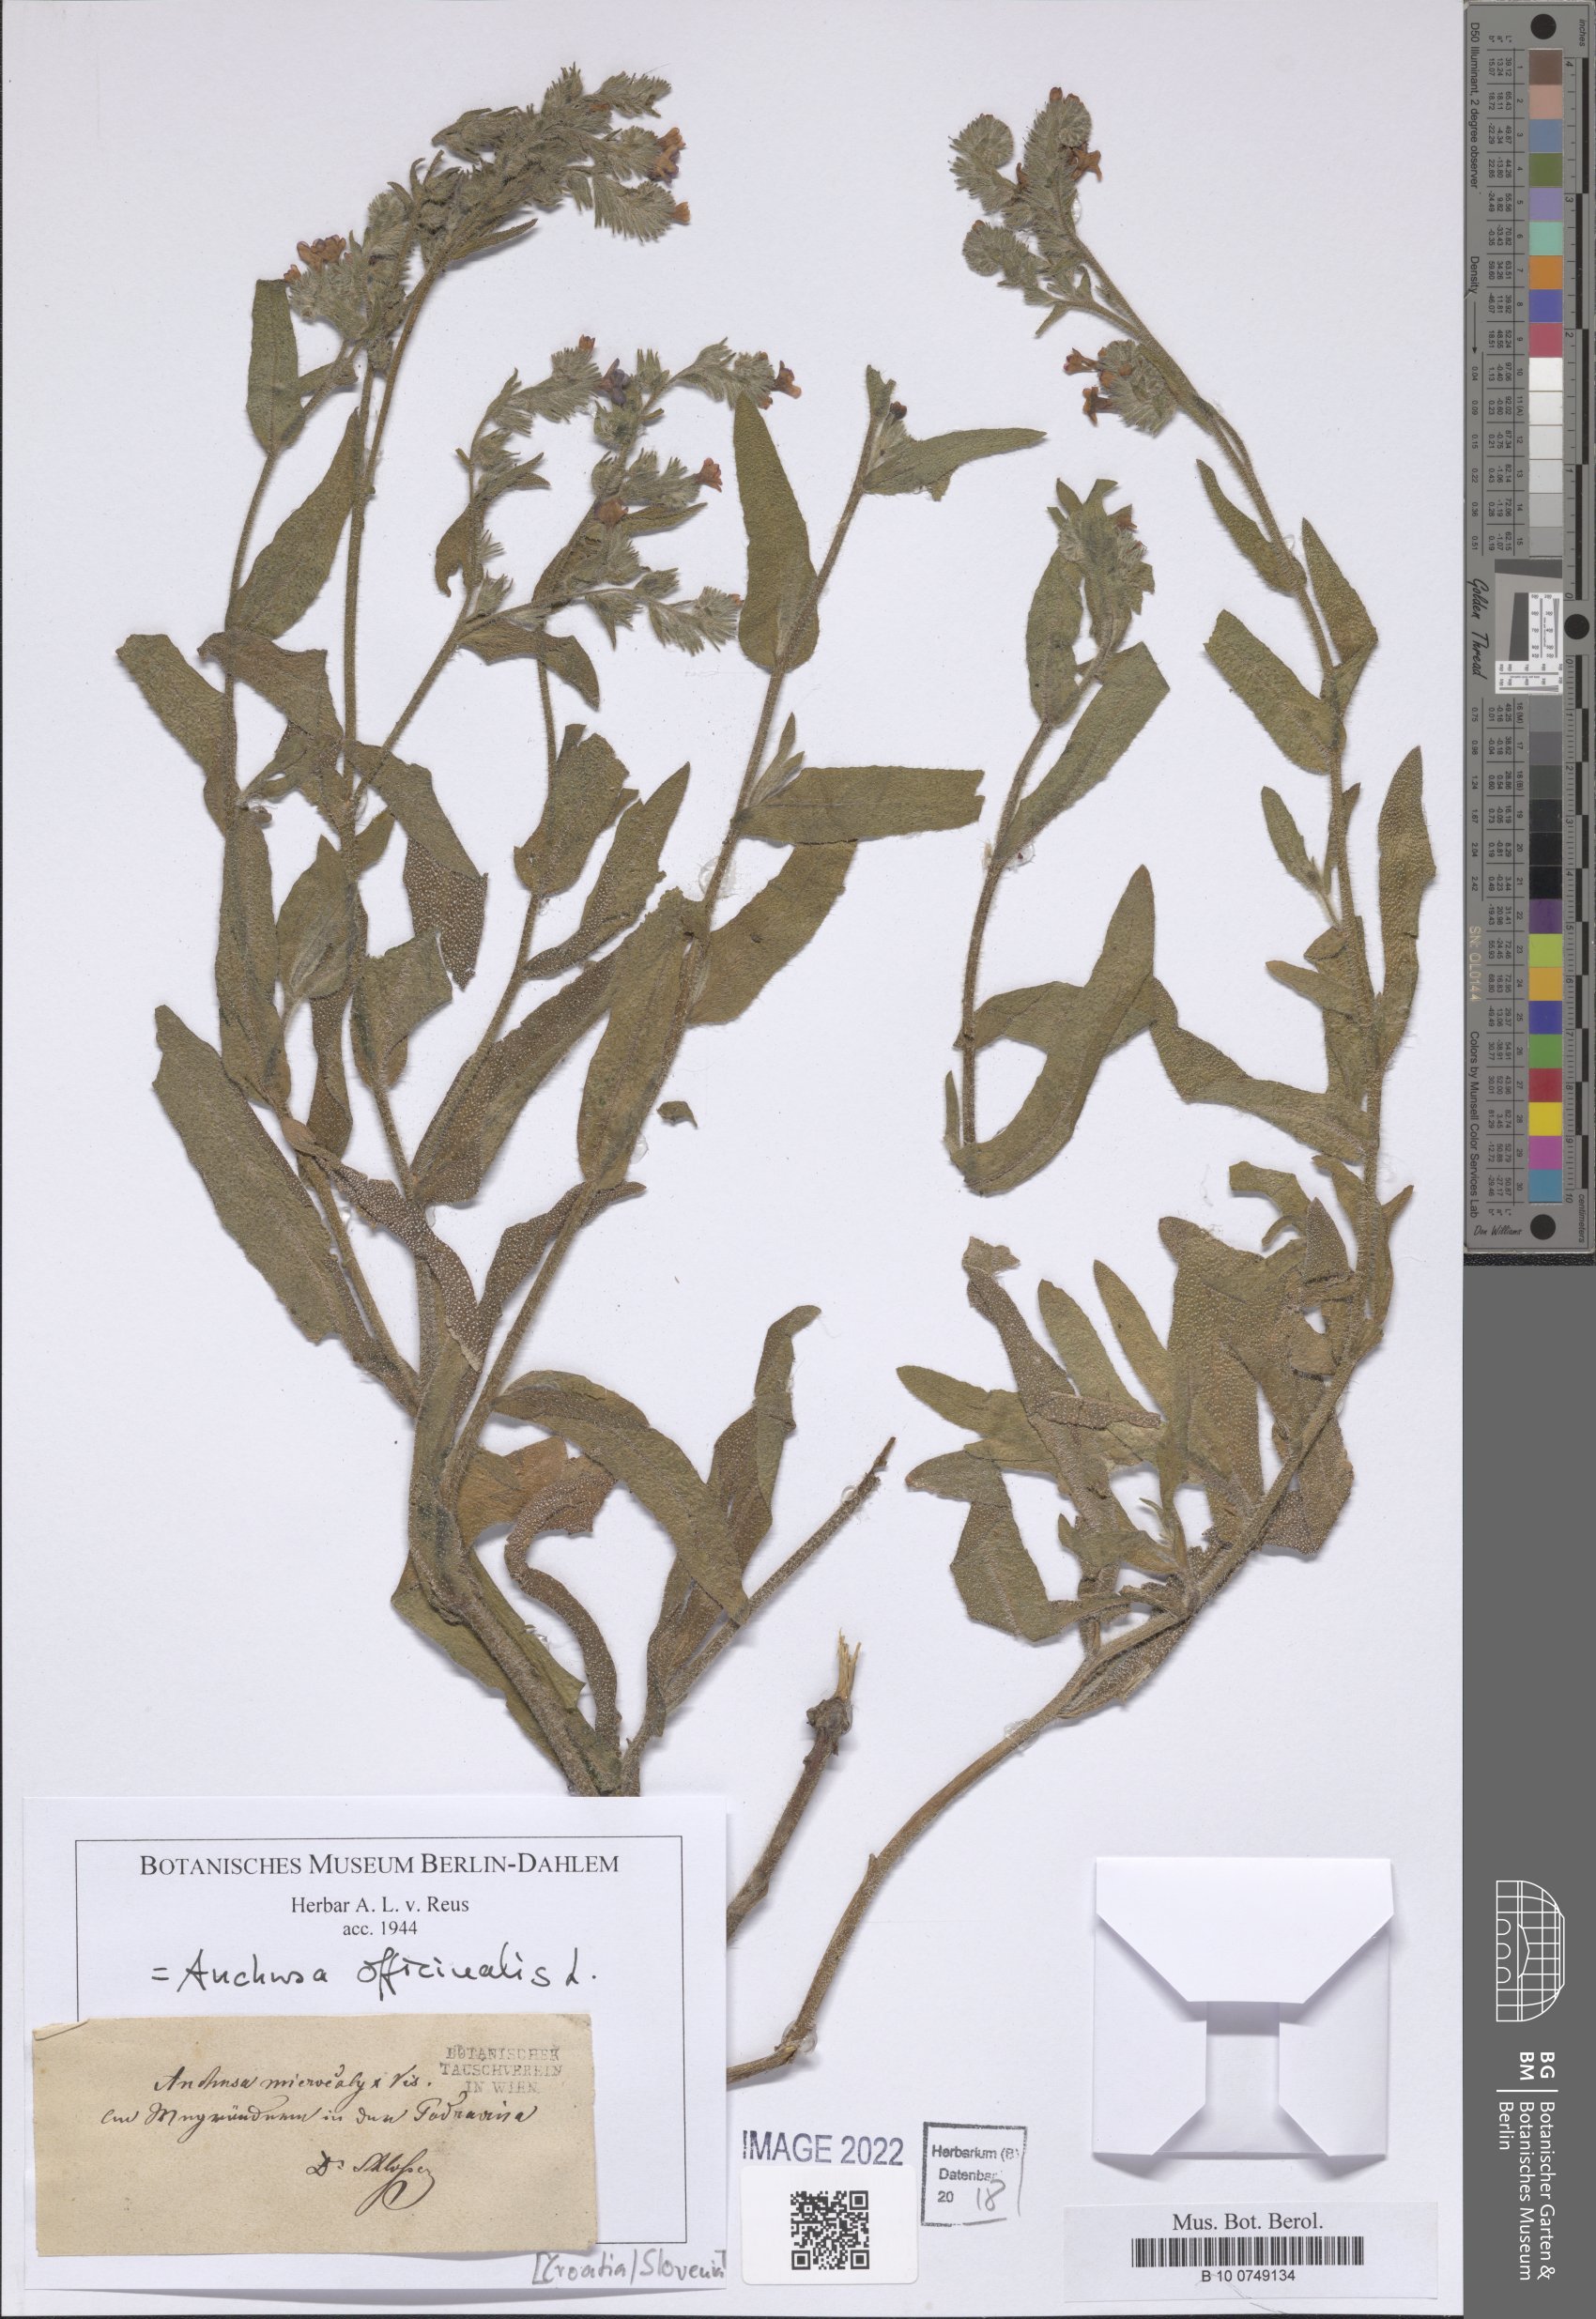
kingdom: Plantae
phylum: Tracheophyta
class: Magnoliopsida
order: Boraginales
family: Boraginaceae
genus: Anchusa
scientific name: Anchusa officinalis
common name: Alkanet
